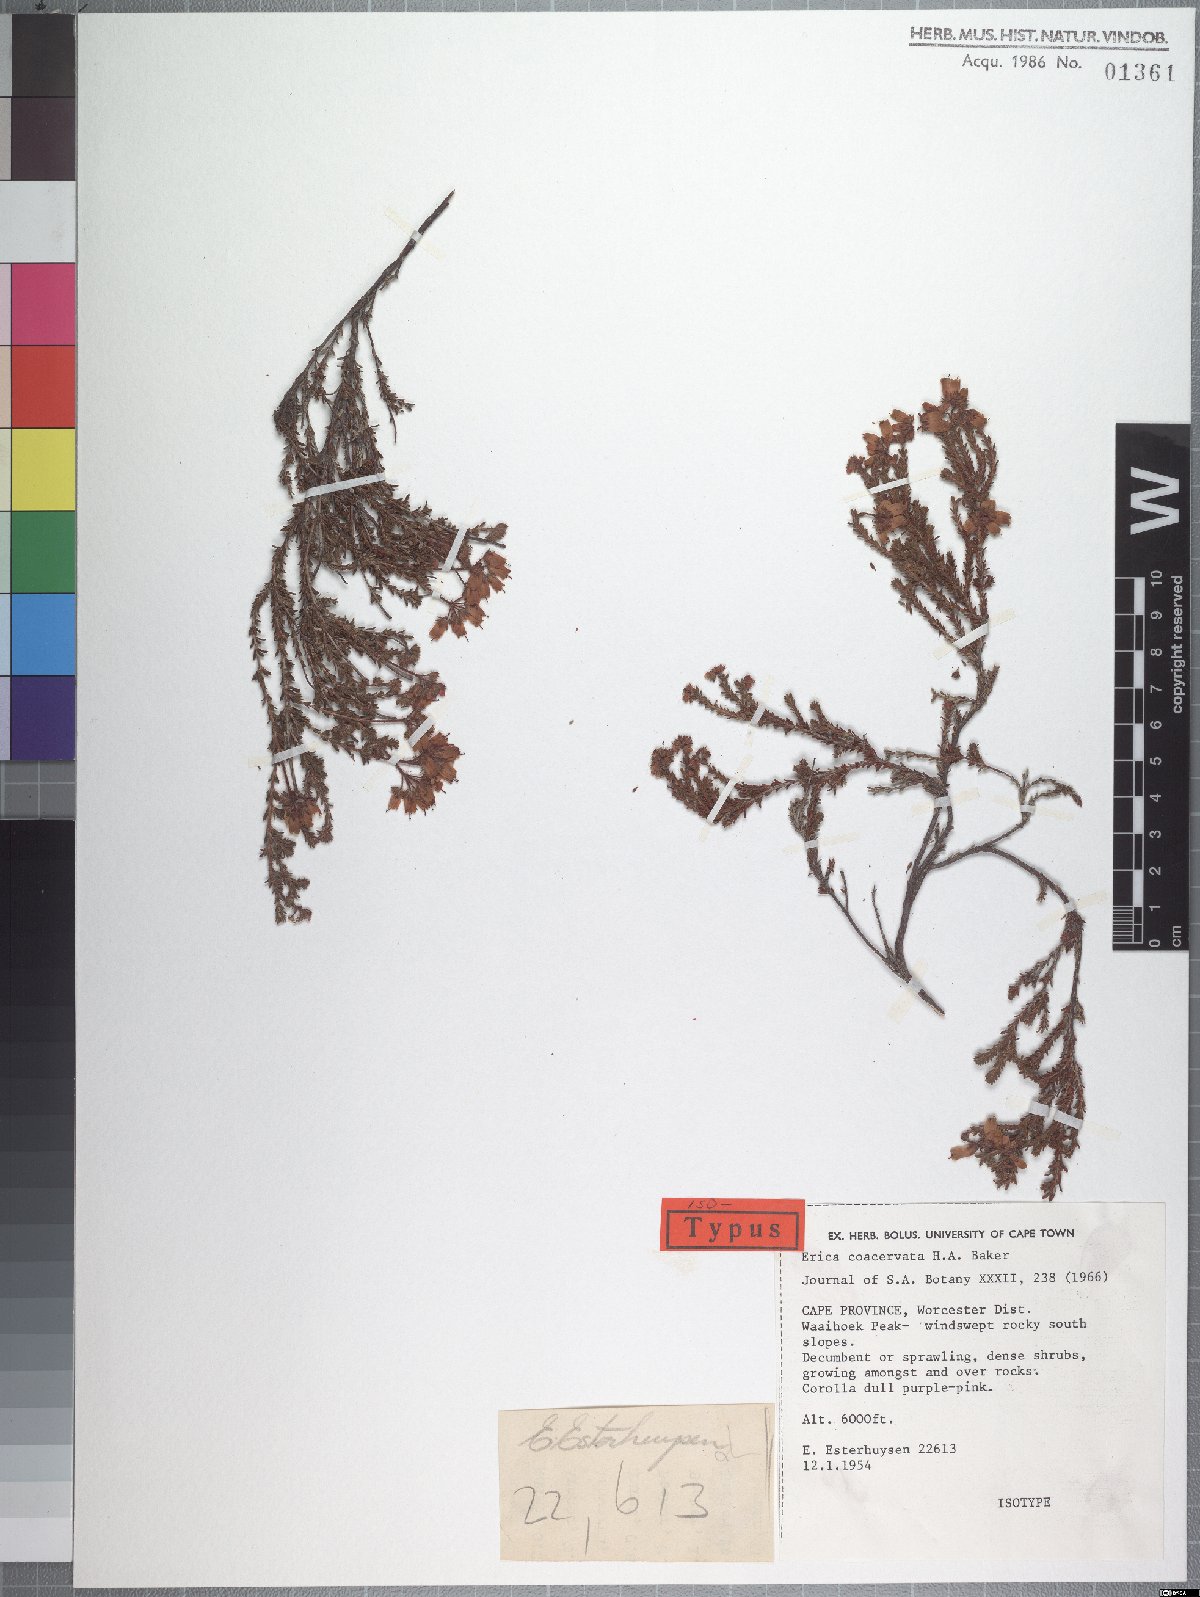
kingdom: Plantae
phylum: Tracheophyta
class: Magnoliopsida
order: Ericales
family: Ericaceae
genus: Erica
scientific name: Erica coacervata
